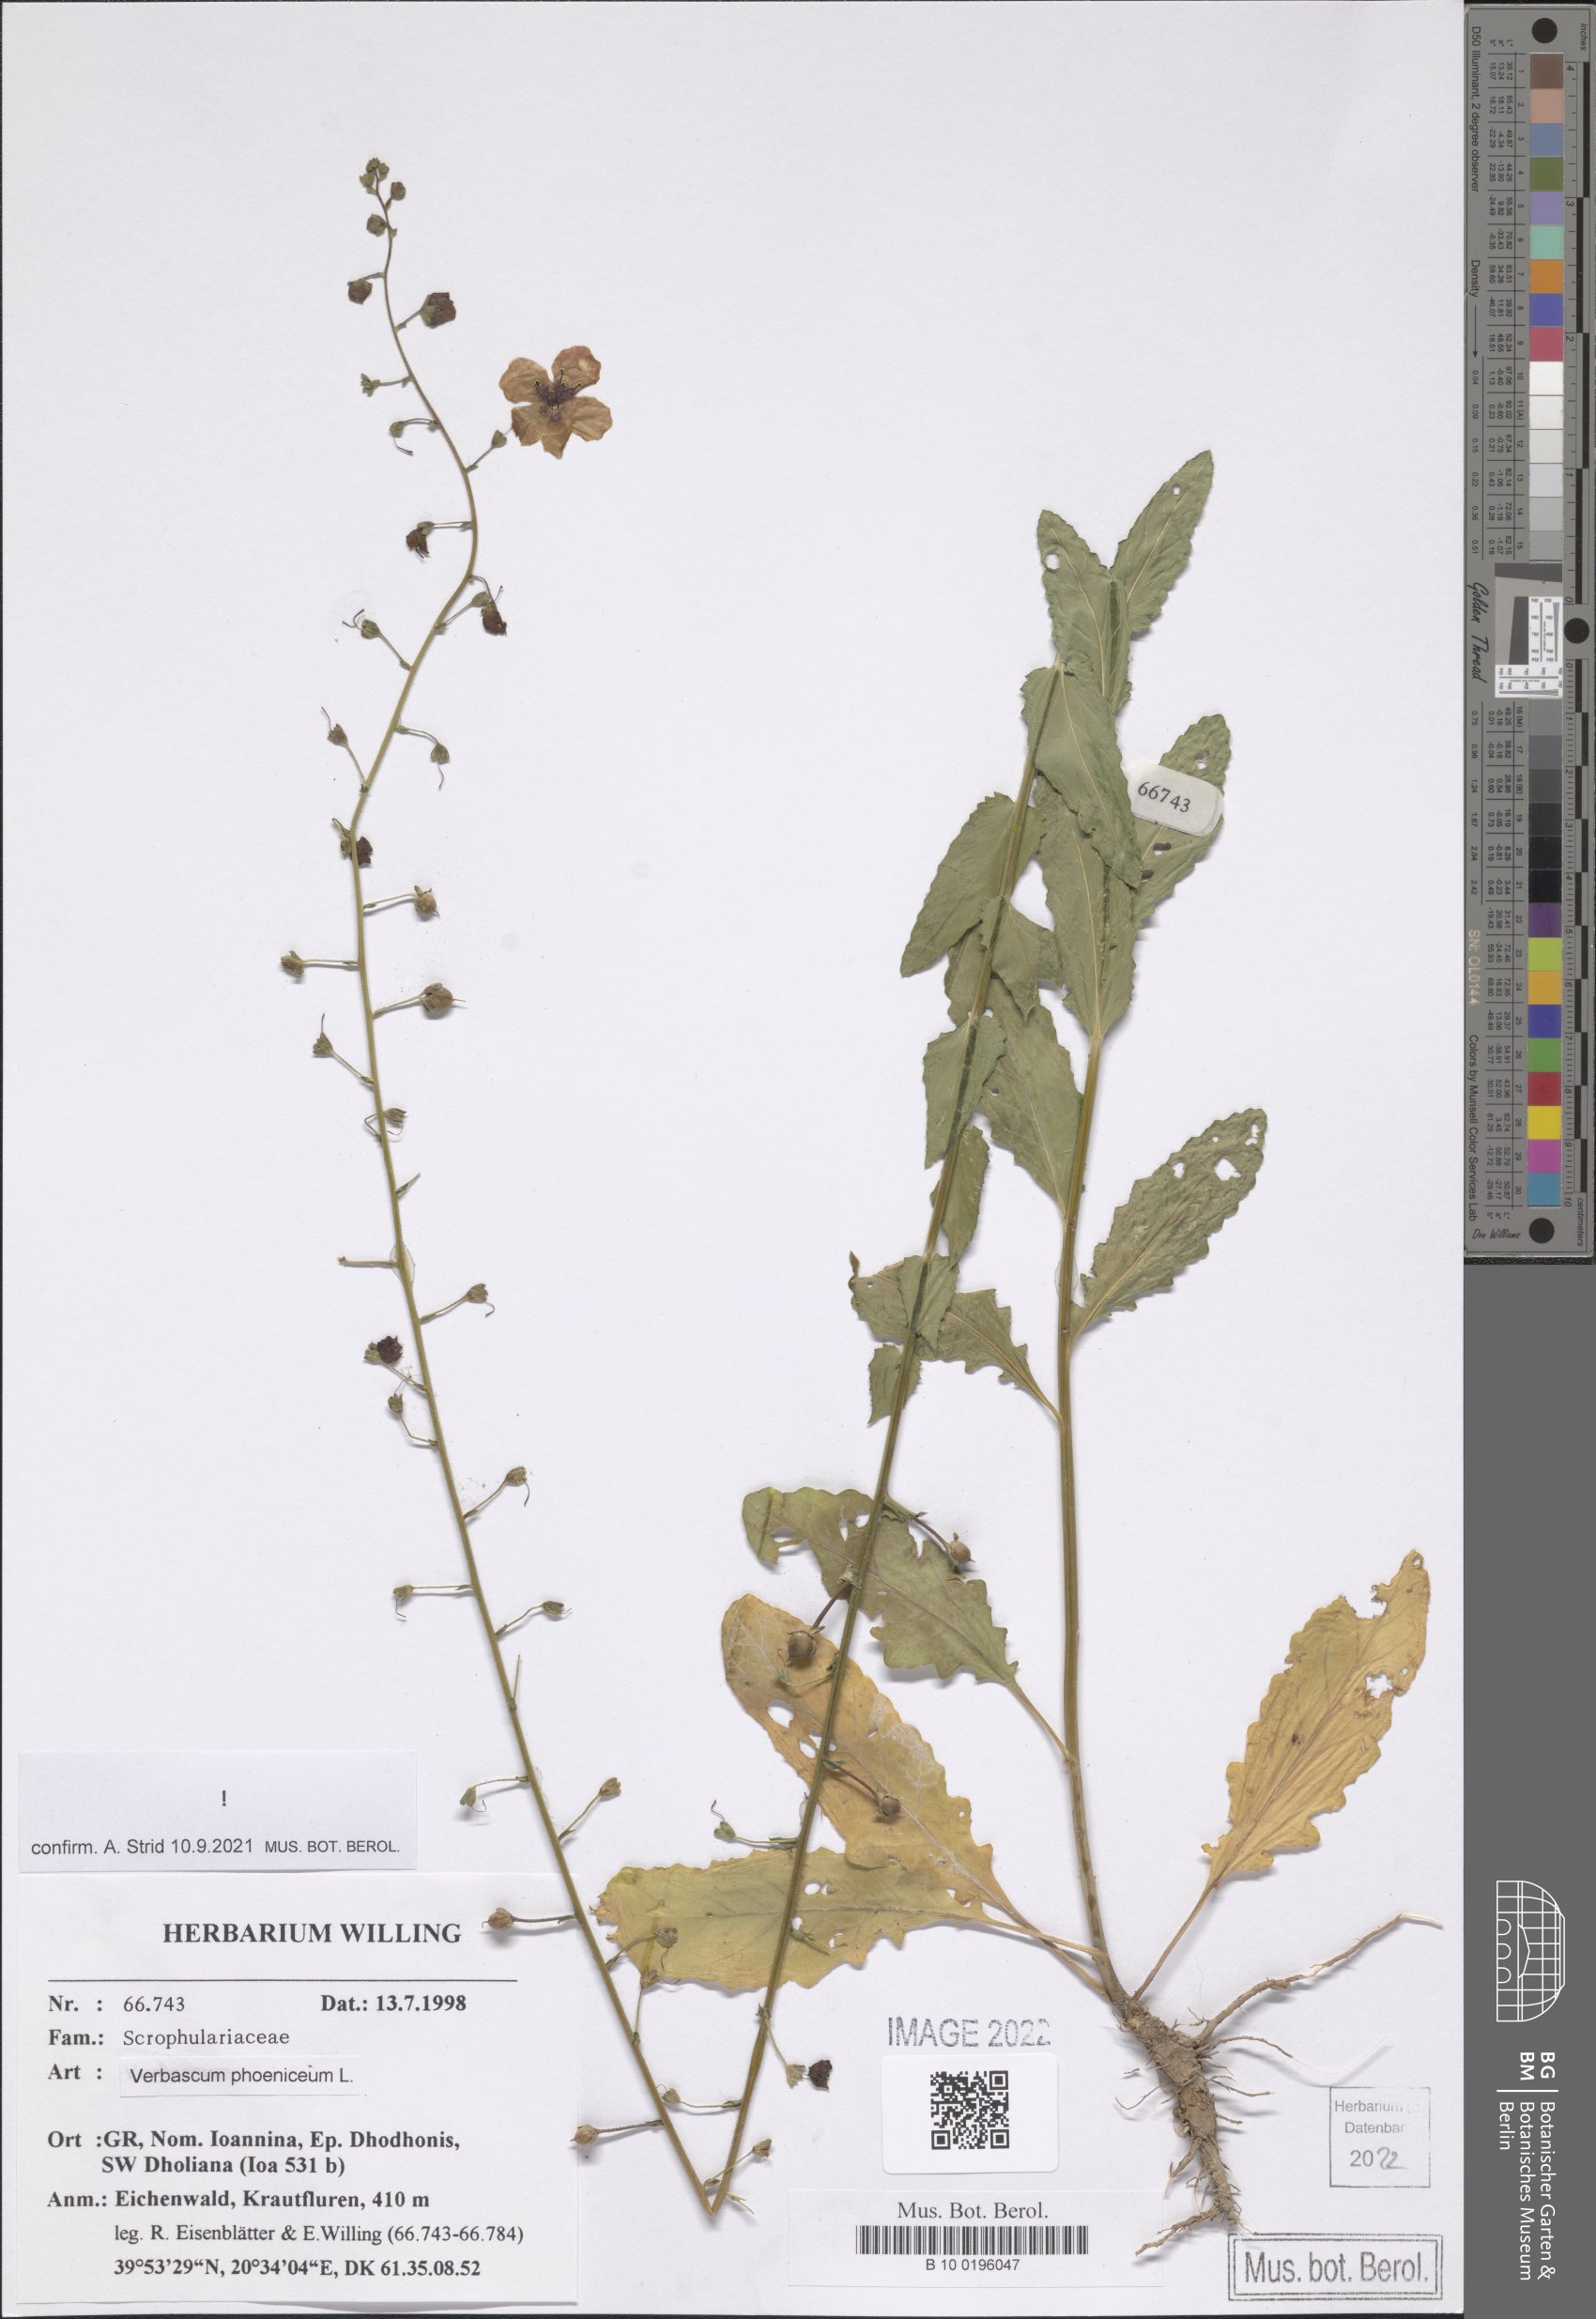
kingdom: Plantae
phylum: Tracheophyta
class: Magnoliopsida
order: Lamiales
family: Scrophulariaceae
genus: Verbascum
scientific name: Verbascum phoeniceum
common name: Purple mullein
